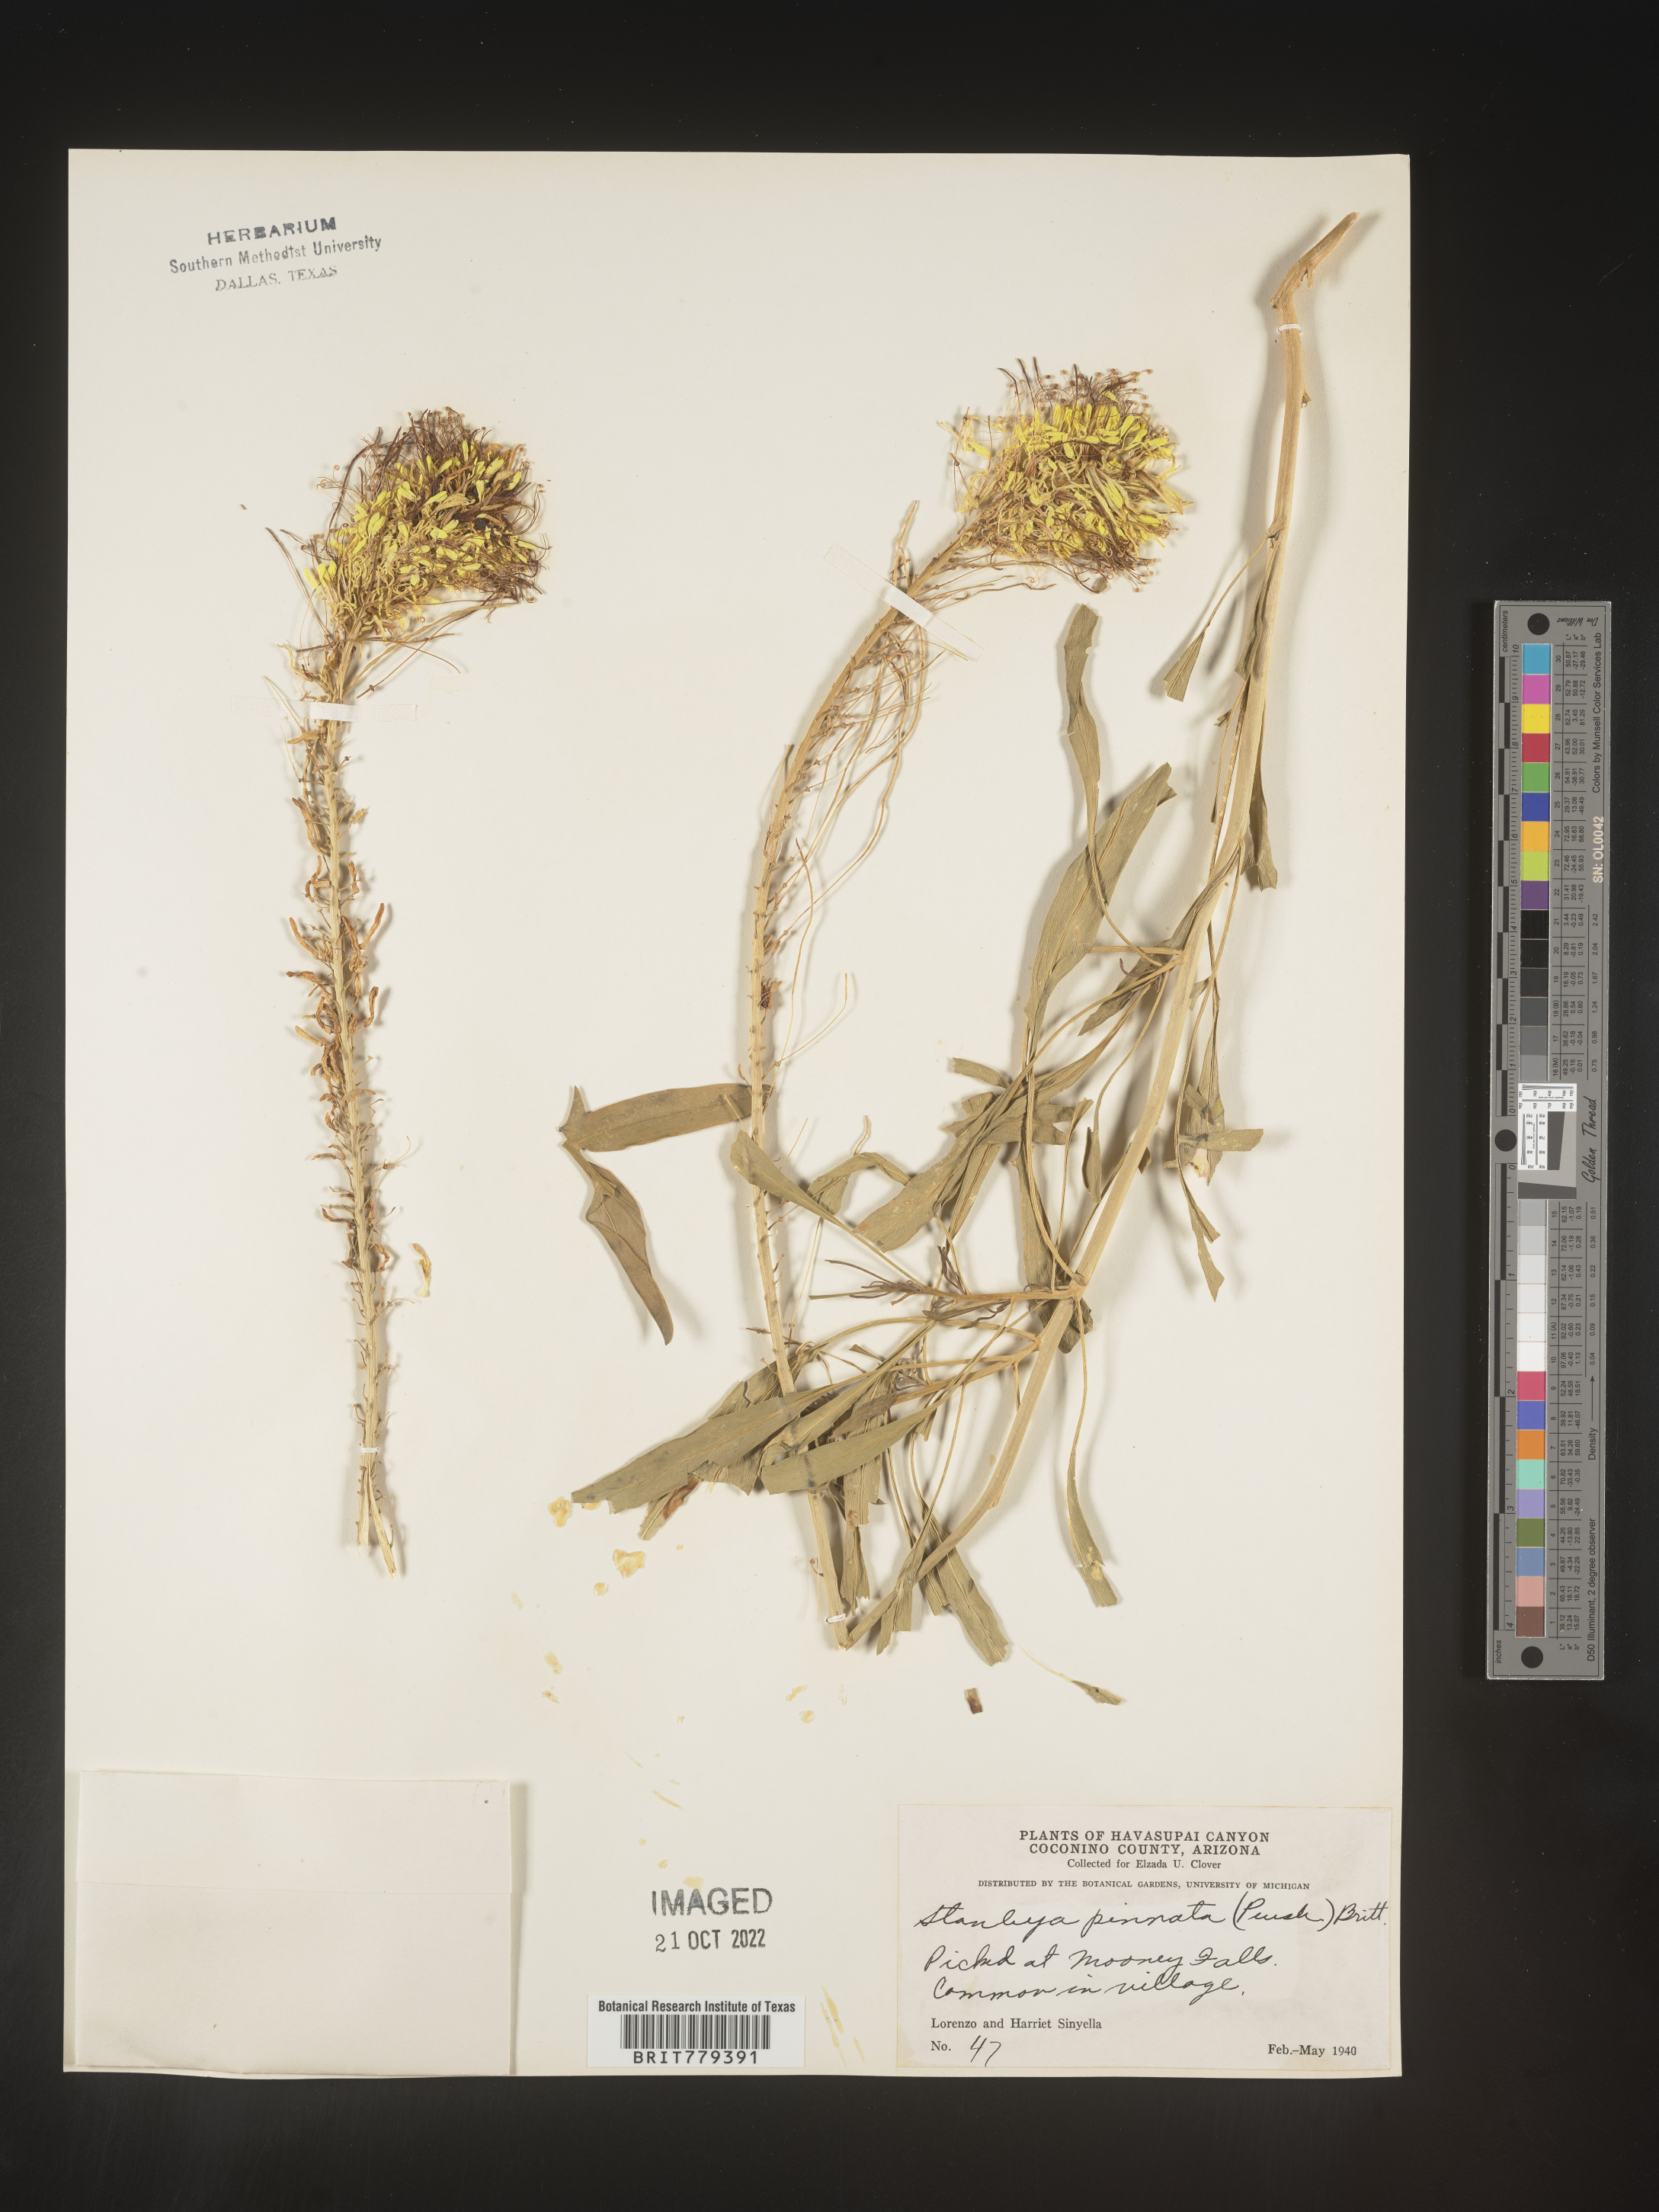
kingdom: Plantae
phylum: Tracheophyta
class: Magnoliopsida
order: Brassicales
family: Brassicaceae
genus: Stanleya
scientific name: Stanleya pinnata
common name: Prince's-plume
